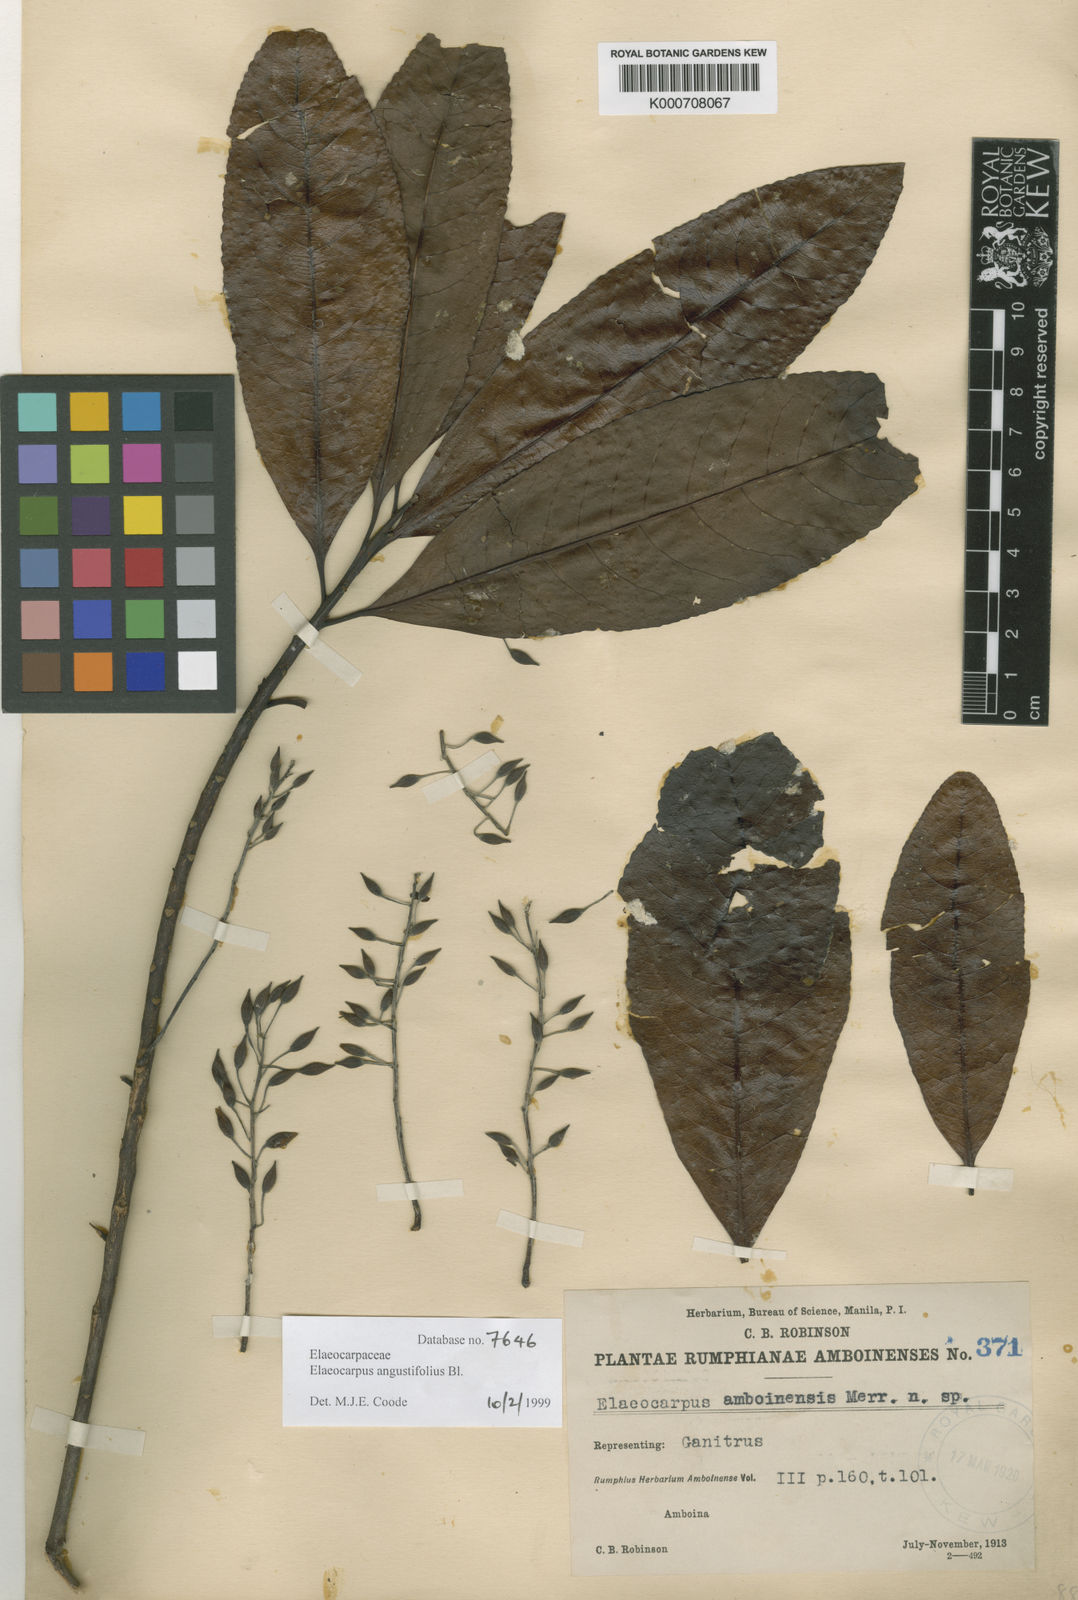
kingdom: Plantae
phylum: Tracheophyta
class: Magnoliopsida
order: Oxalidales
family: Elaeocarpaceae
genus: Elaeocarpus
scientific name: Elaeocarpus angustifolius
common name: Blue marble tree
